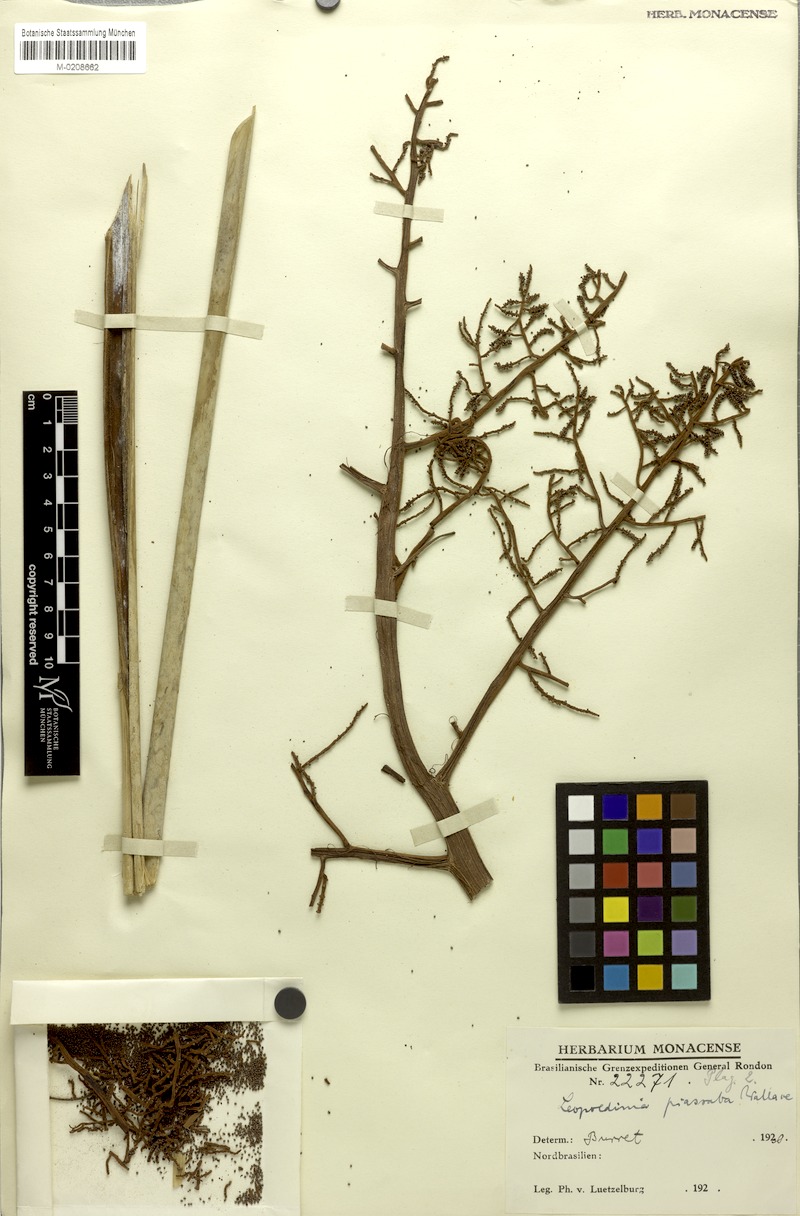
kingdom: Plantae
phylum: Tracheophyta
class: Liliopsida
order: Arecales
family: Arecaceae
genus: Leopoldinia
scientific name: Leopoldinia piassaba
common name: Piassaba
